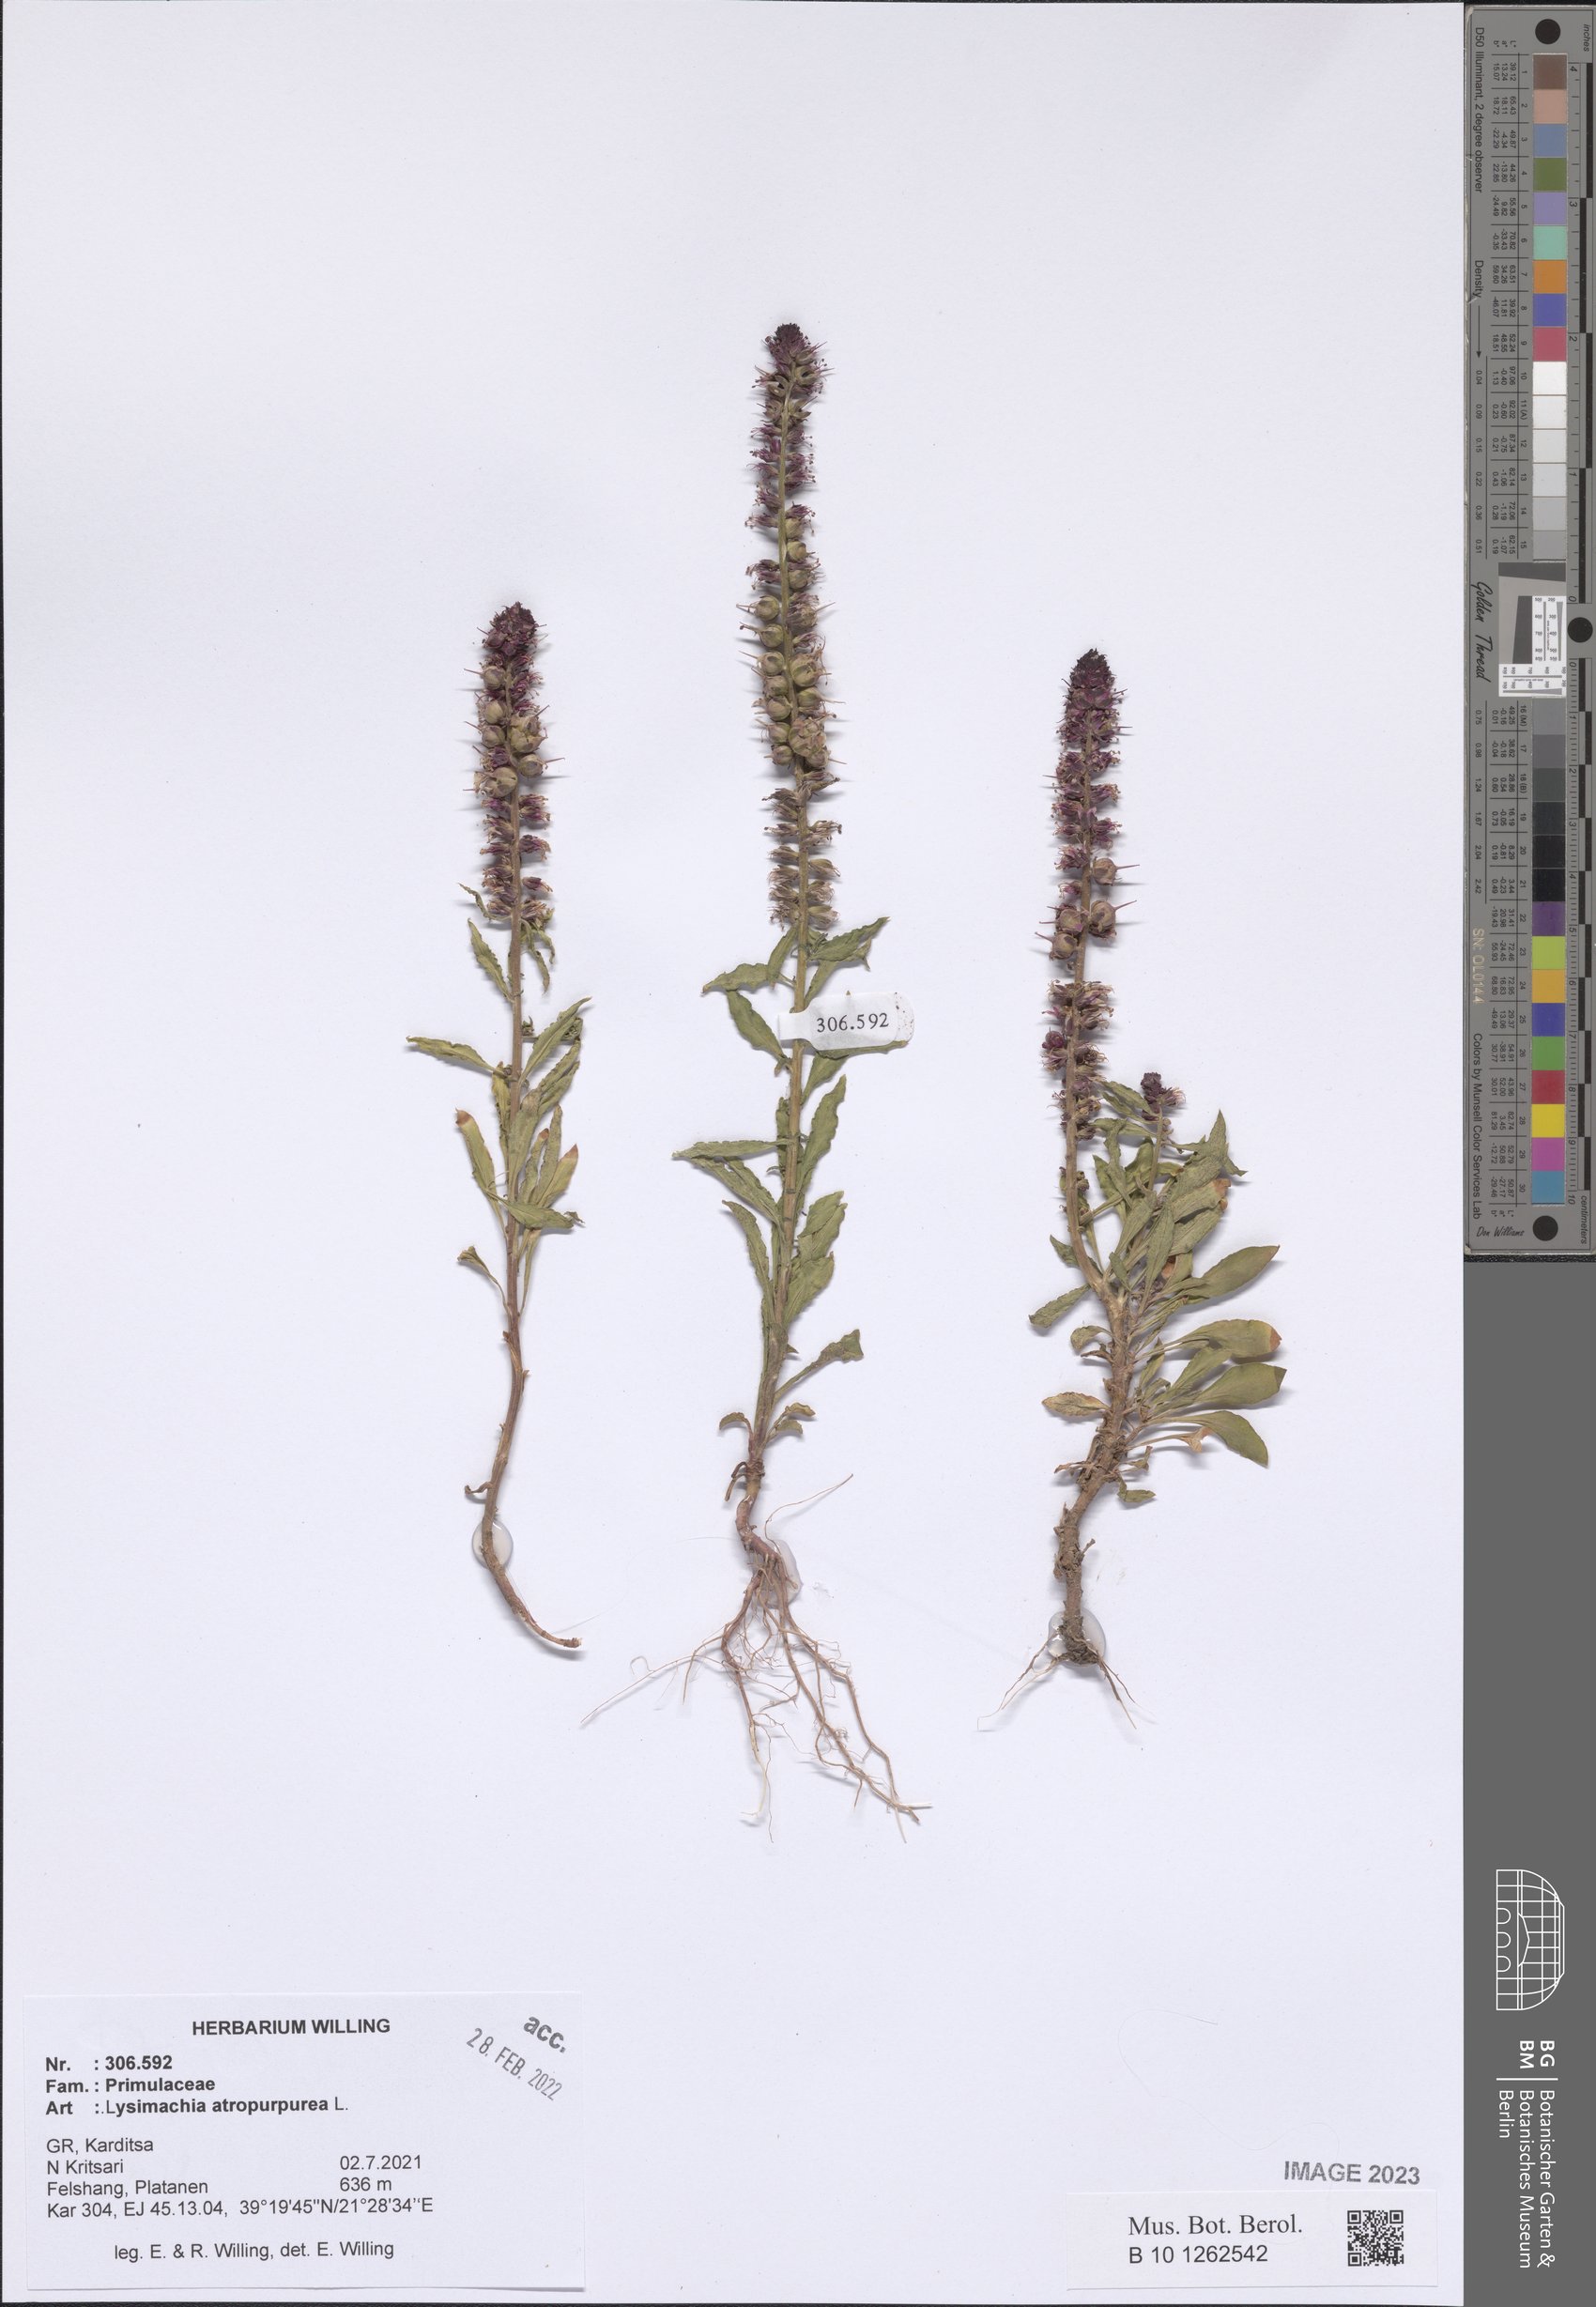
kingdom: Plantae
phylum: Tracheophyta
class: Magnoliopsida
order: Ericales
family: Primulaceae
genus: Lysimachia
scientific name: Lysimachia atropurpurea
